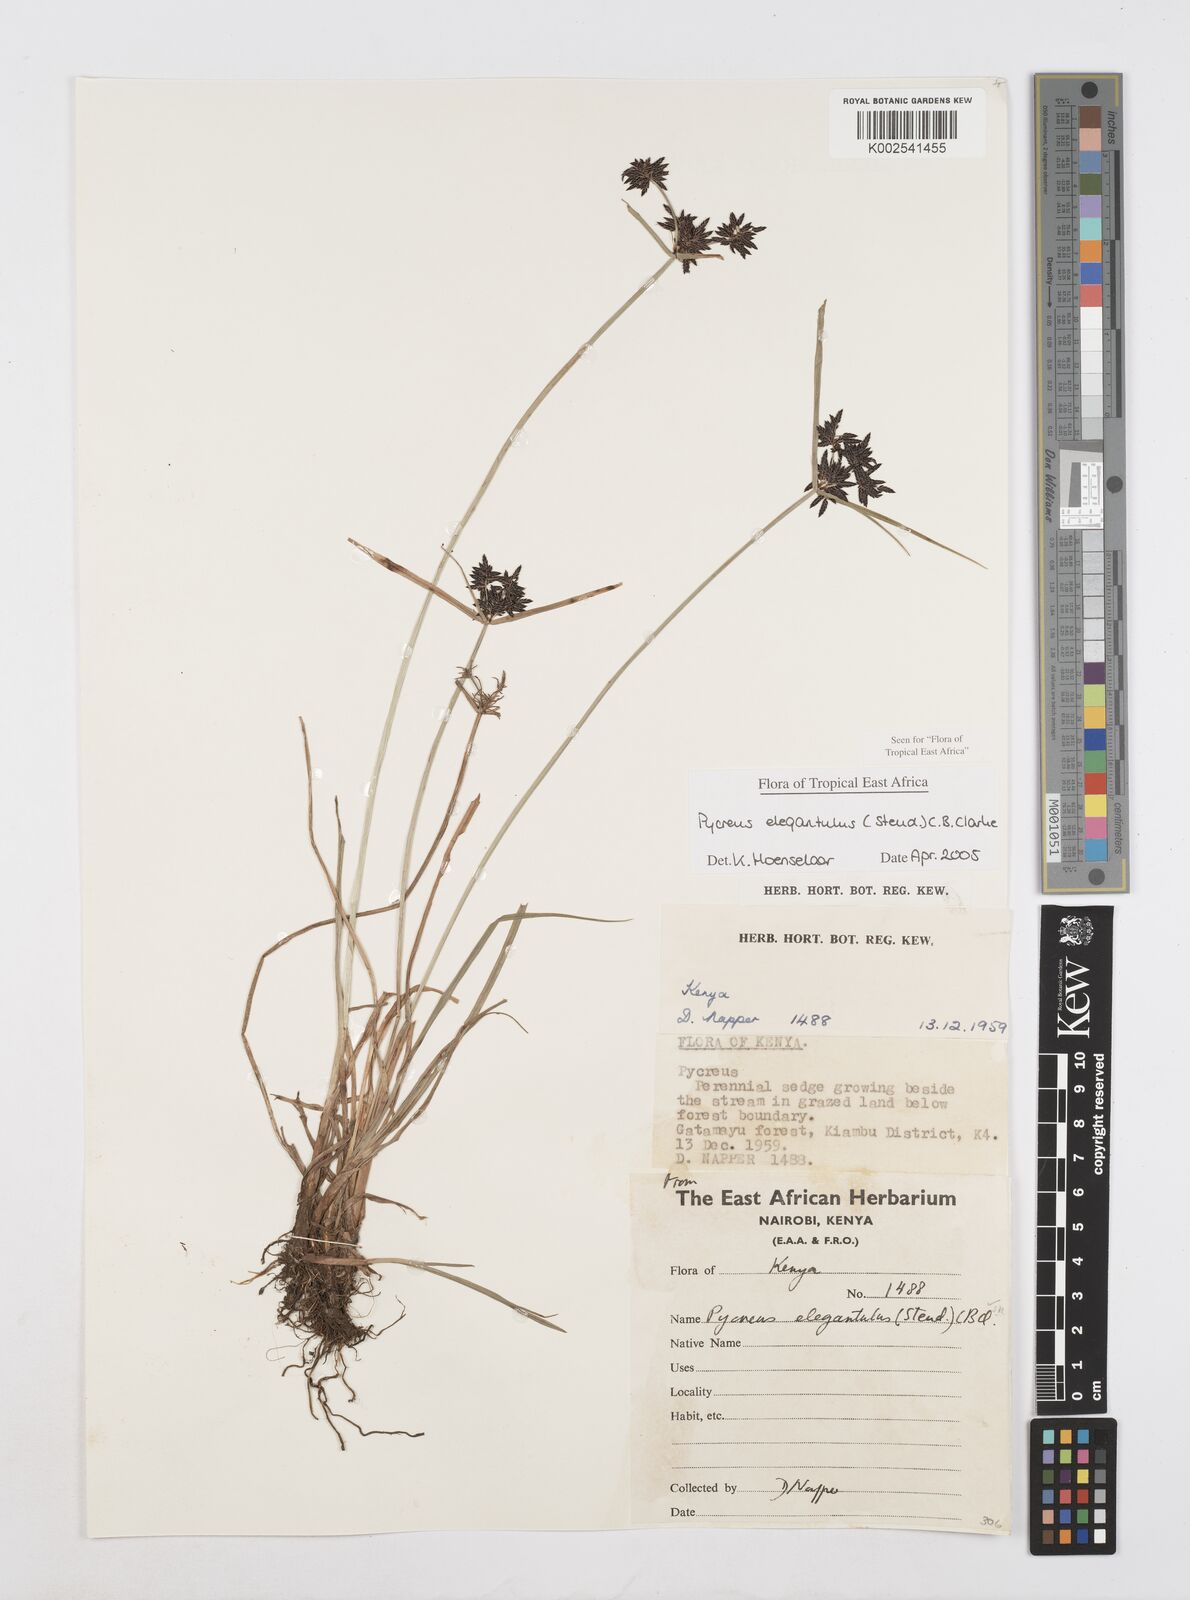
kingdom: Plantae
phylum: Tracheophyta
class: Liliopsida
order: Poales
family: Cyperaceae
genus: Cyperus
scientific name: Cyperus elegantulus
